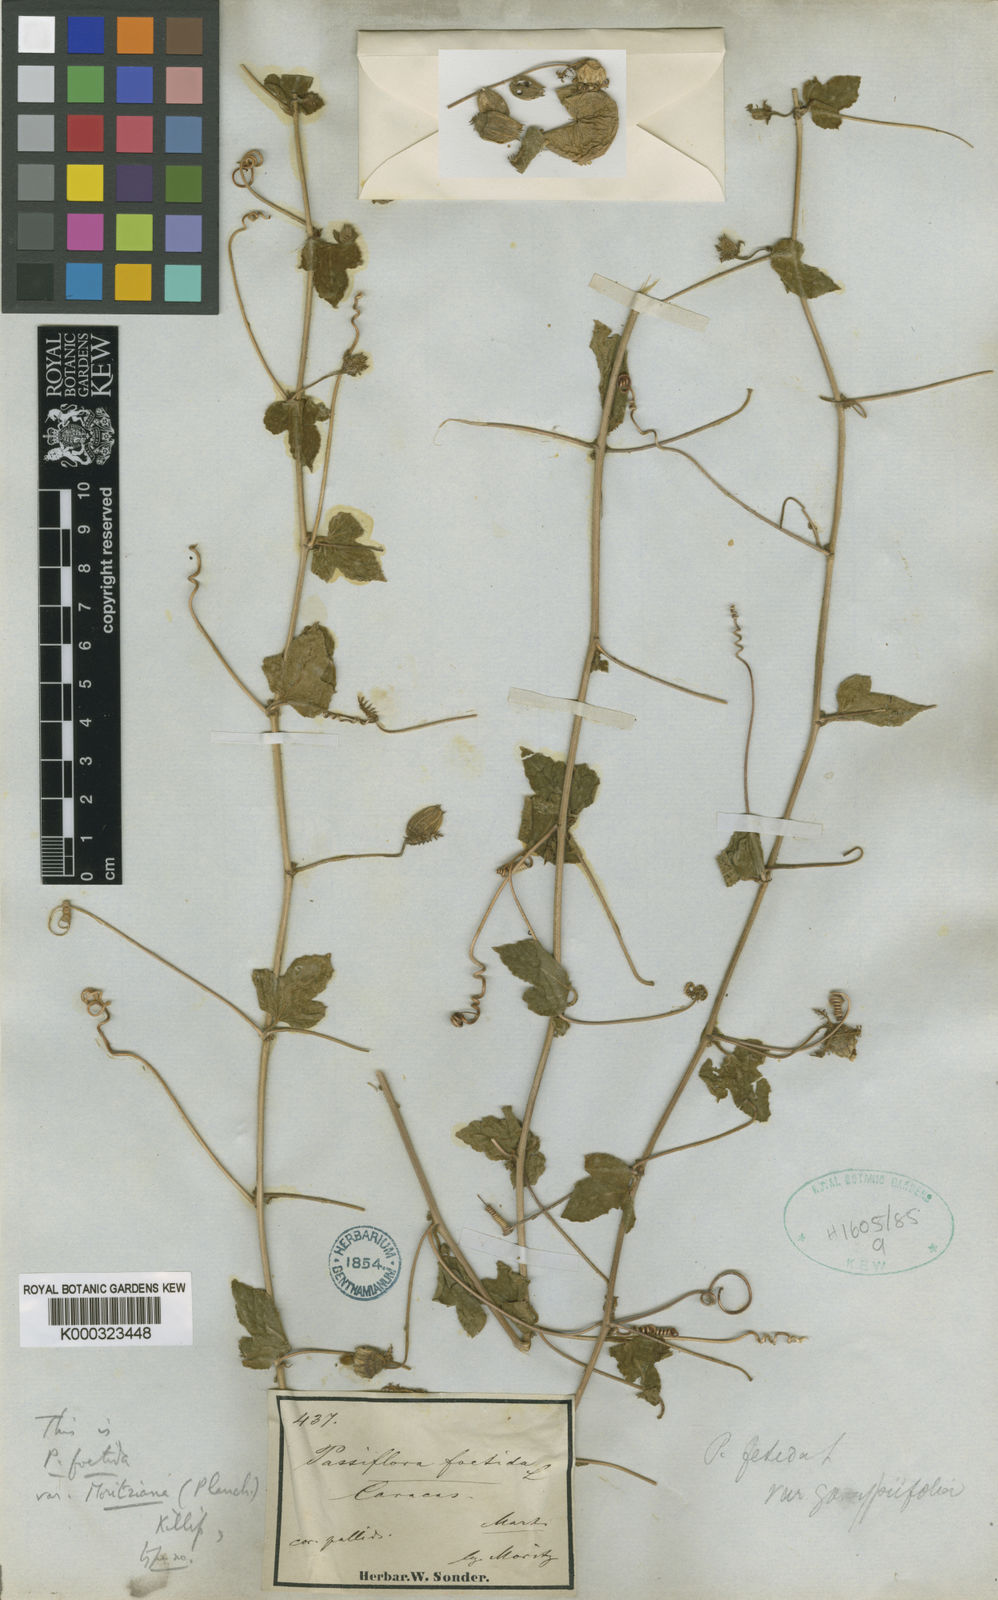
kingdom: Plantae
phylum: Tracheophyta
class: Magnoliopsida
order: Malpighiales
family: Passifloraceae
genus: Passiflora
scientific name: Passiflora foetida
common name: Fetid passionflower
